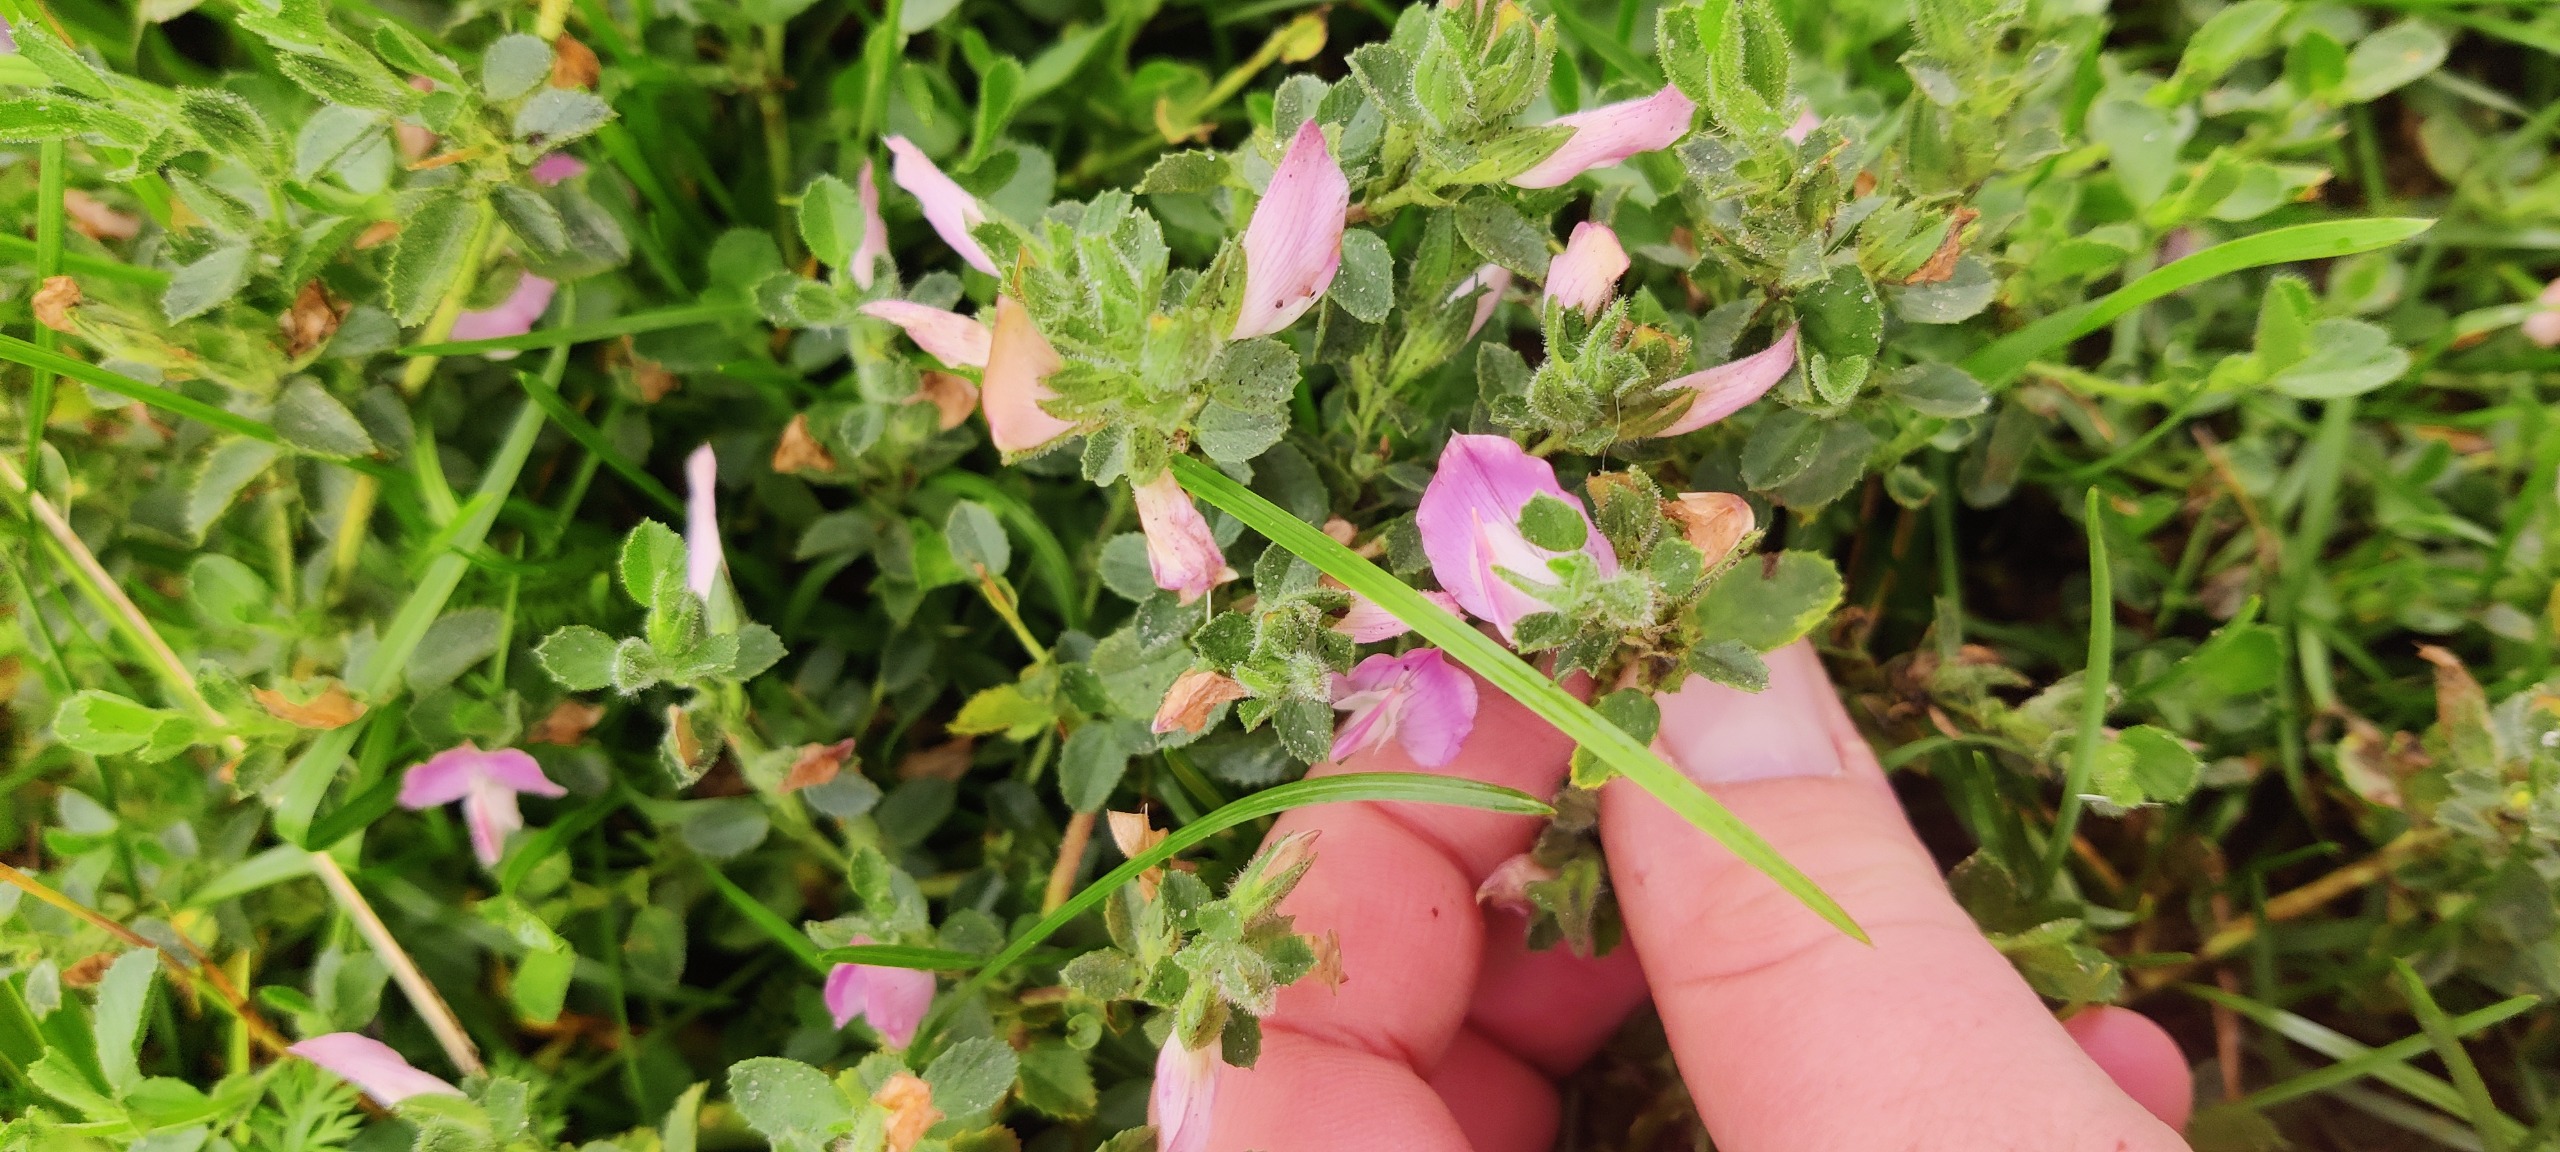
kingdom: Plantae
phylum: Tracheophyta
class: Magnoliopsida
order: Fabales
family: Fabaceae
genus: Ononis
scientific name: Ononis spinosa
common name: Mark-krageklo
